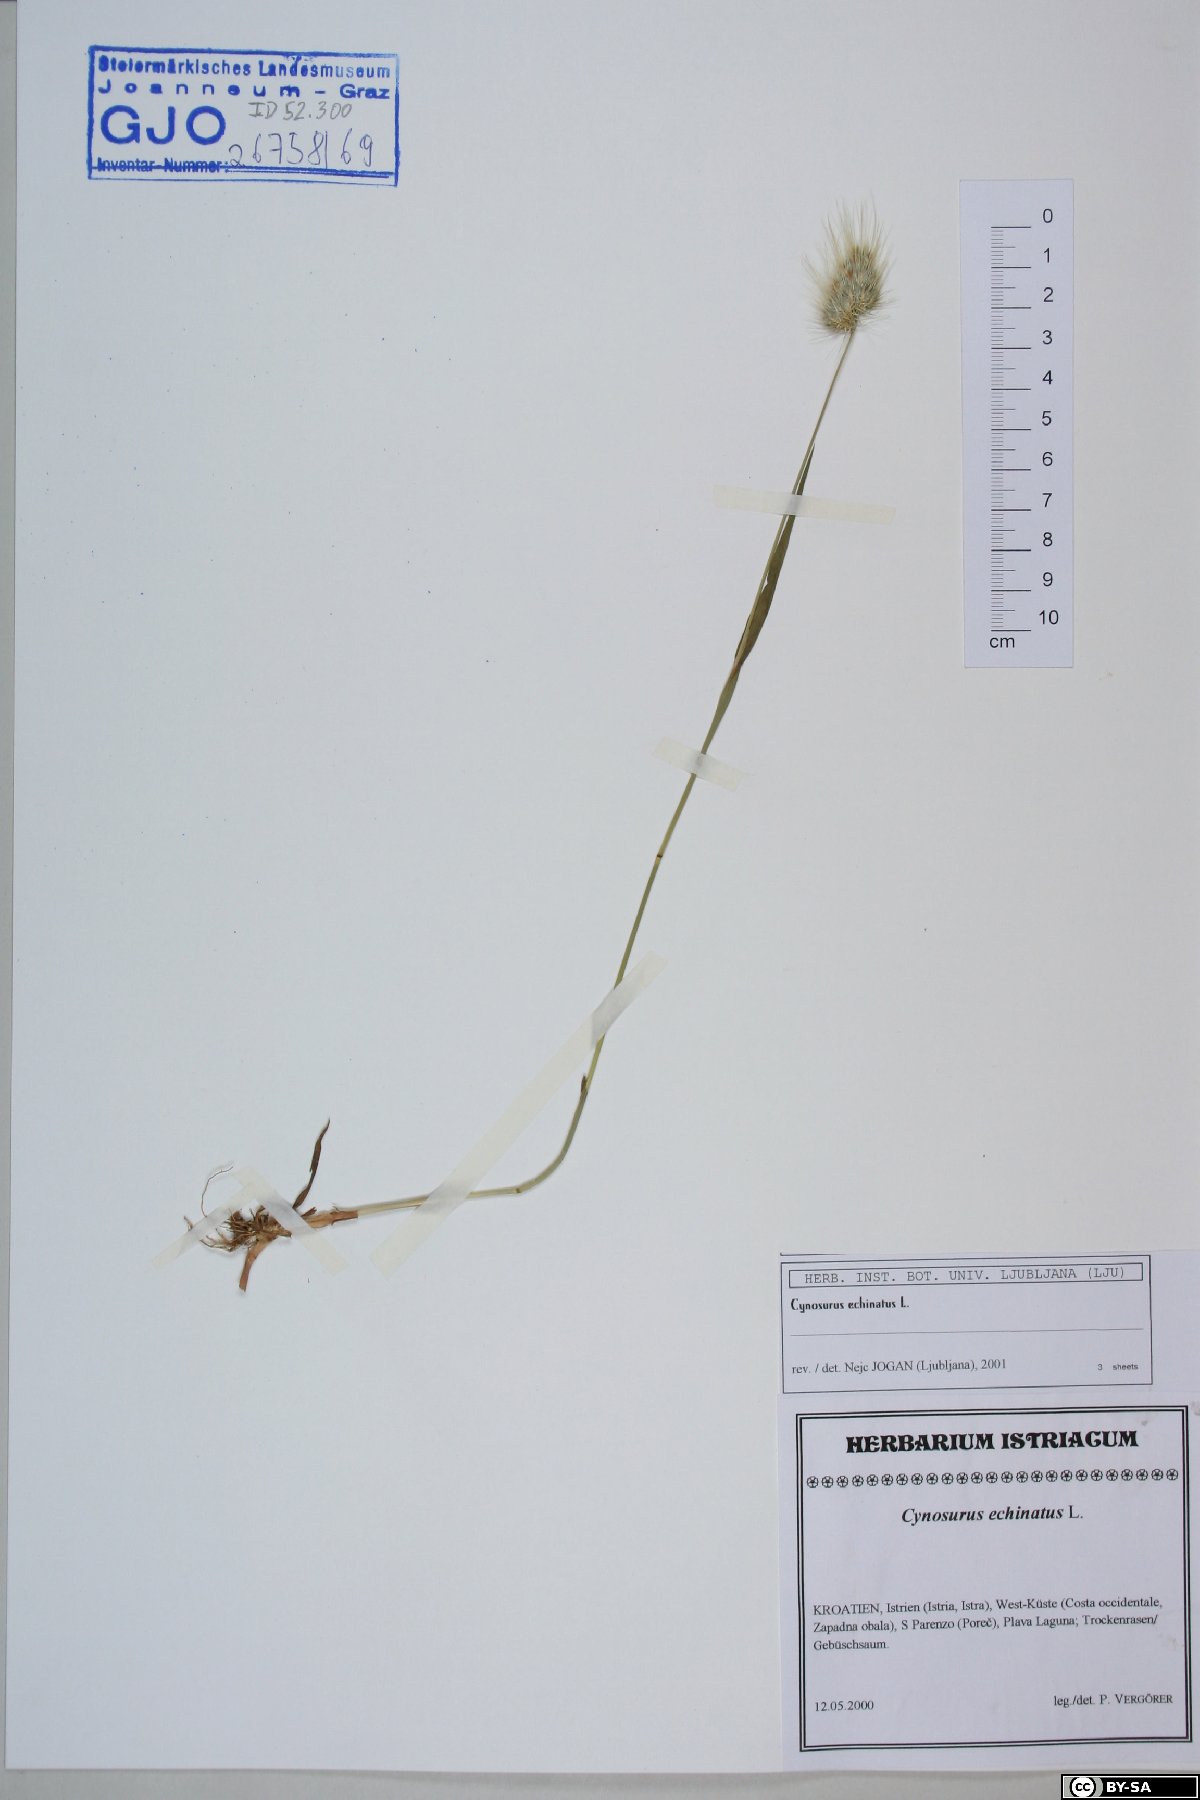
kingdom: Plantae
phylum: Tracheophyta
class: Liliopsida
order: Poales
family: Poaceae
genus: Cynosurus
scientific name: Cynosurus echinatus
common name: Rough dog's-tail
